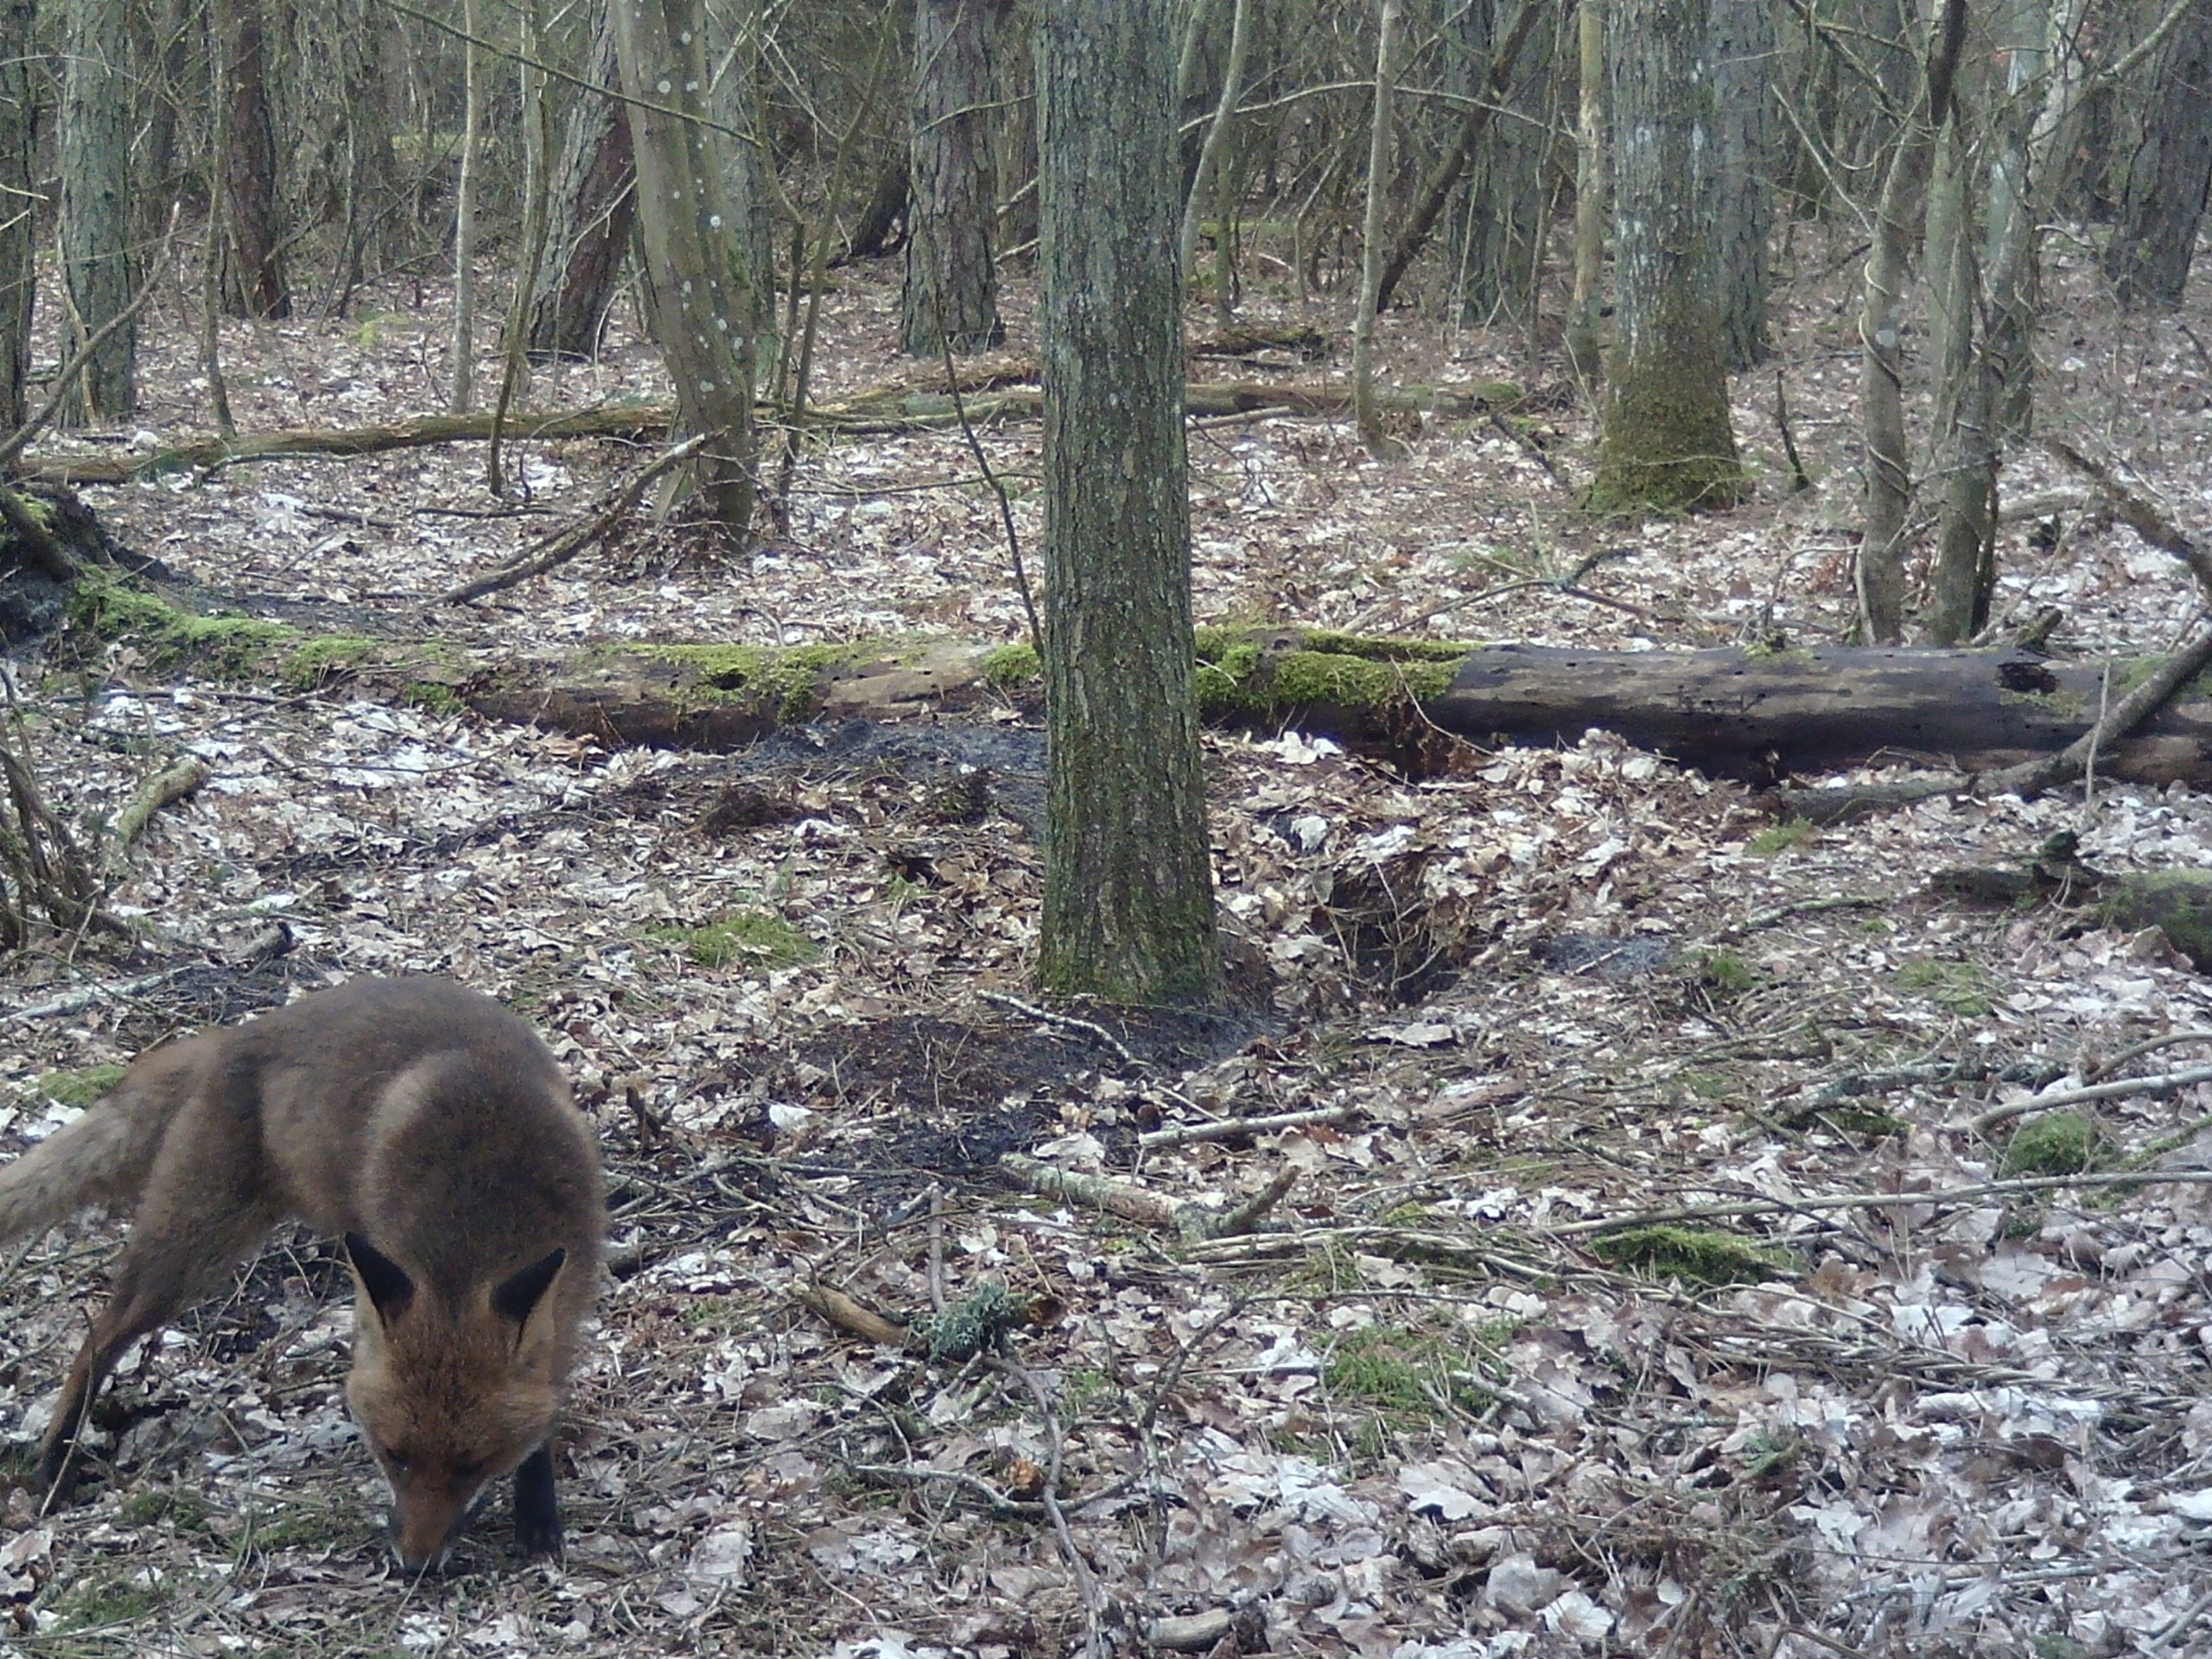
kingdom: Animalia
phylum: Chordata
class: Mammalia
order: Carnivora
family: Canidae
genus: Vulpes
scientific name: Vulpes vulpes
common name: Ræv
